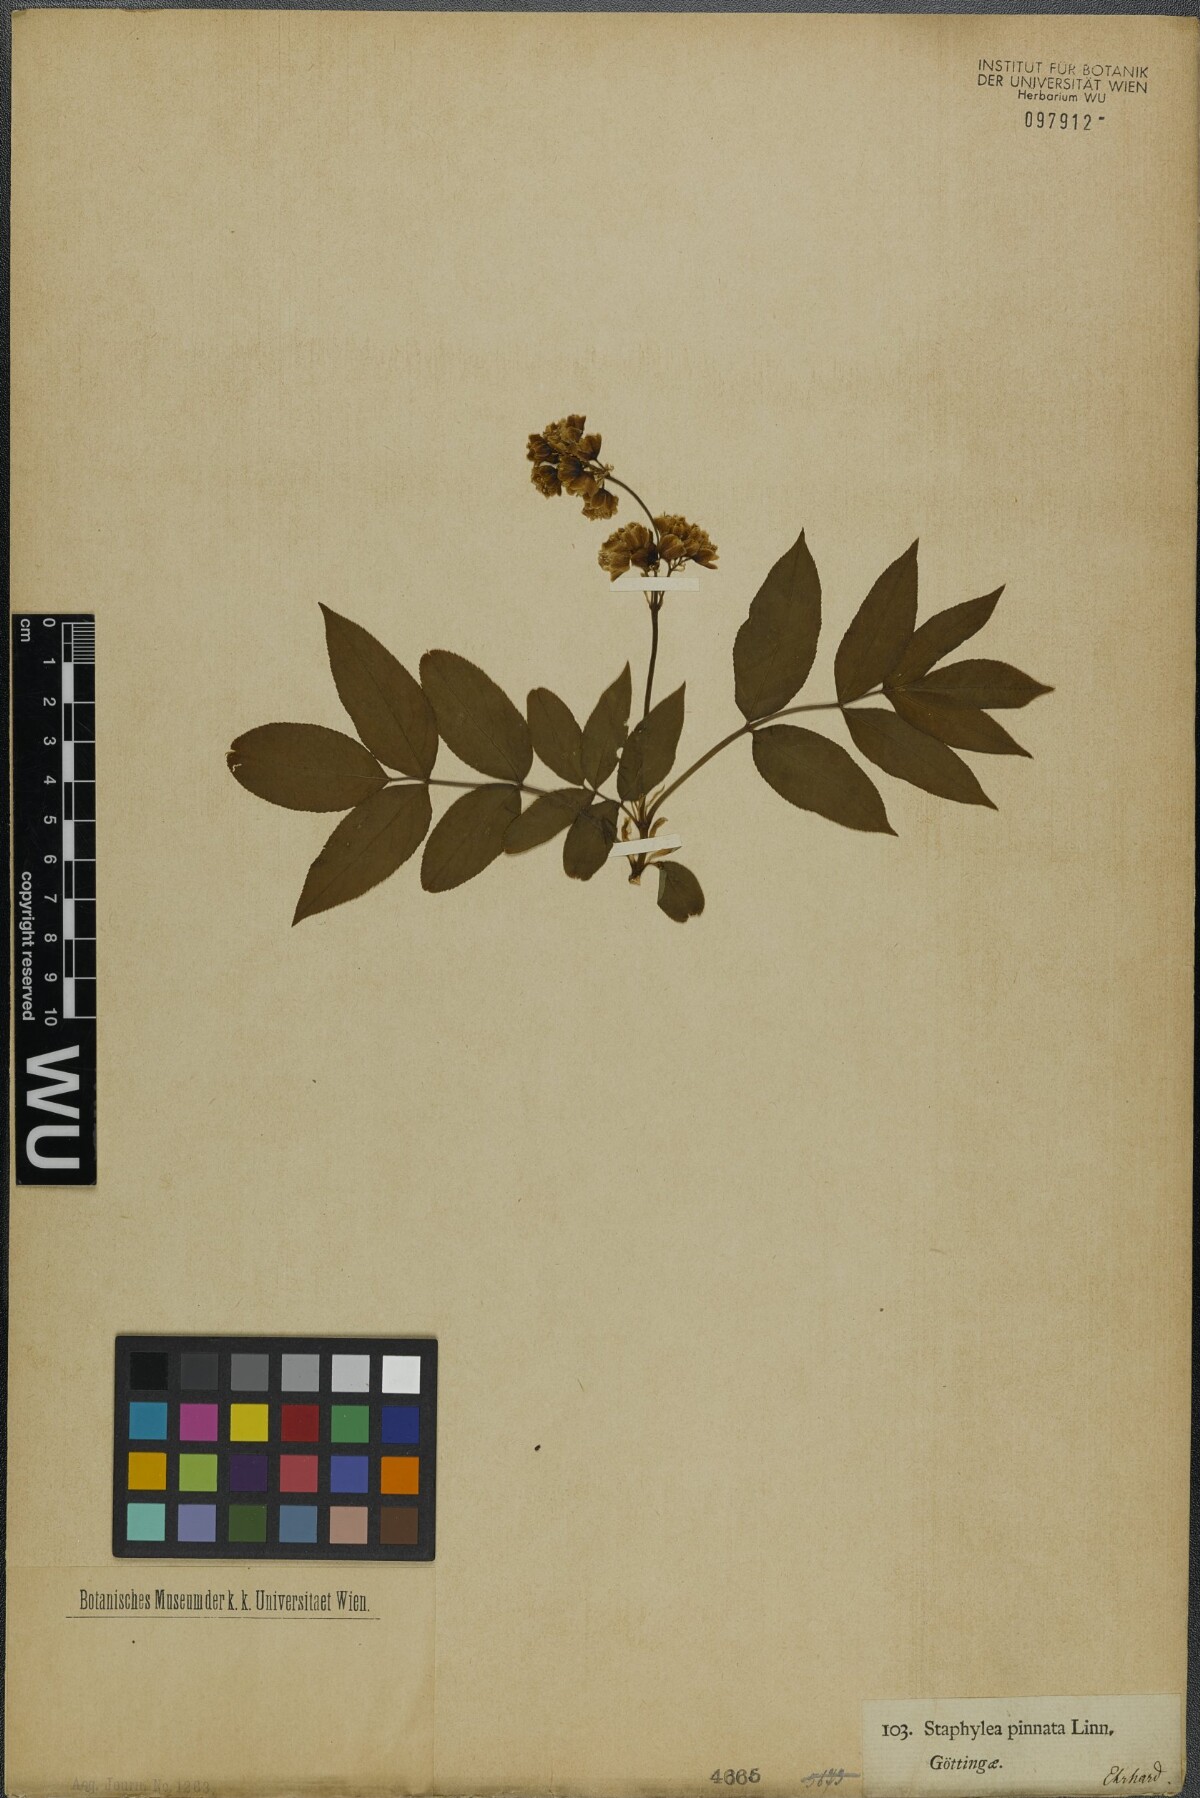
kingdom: Plantae
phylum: Tracheophyta
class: Magnoliopsida
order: Crossosomatales
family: Staphyleaceae
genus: Staphylea
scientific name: Staphylea pinnata
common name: Bladdernut
